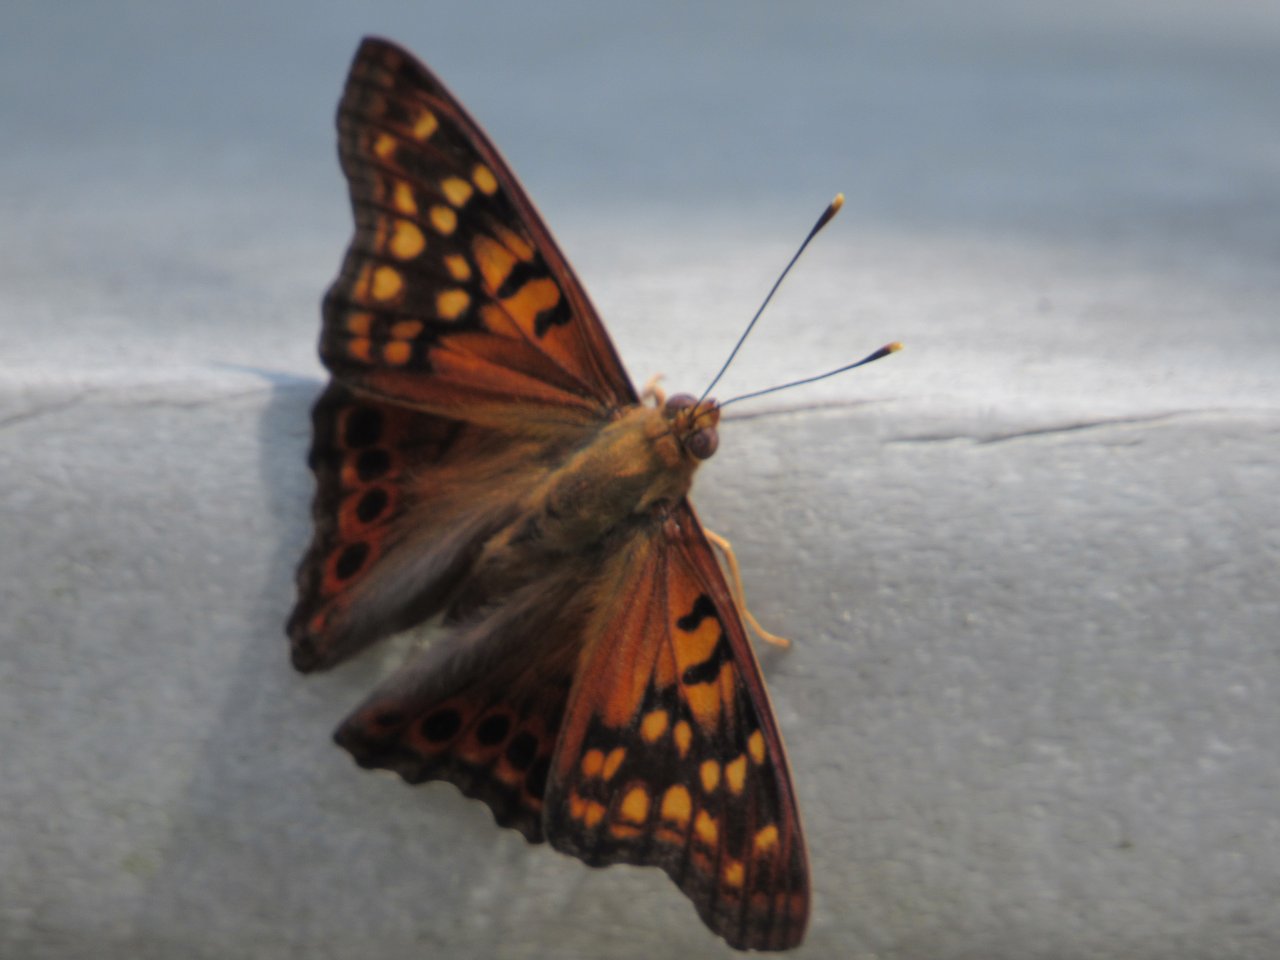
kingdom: Animalia
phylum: Arthropoda
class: Insecta
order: Lepidoptera
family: Nymphalidae
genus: Asterocampa
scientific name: Asterocampa clyton
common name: Tawny Emperor
